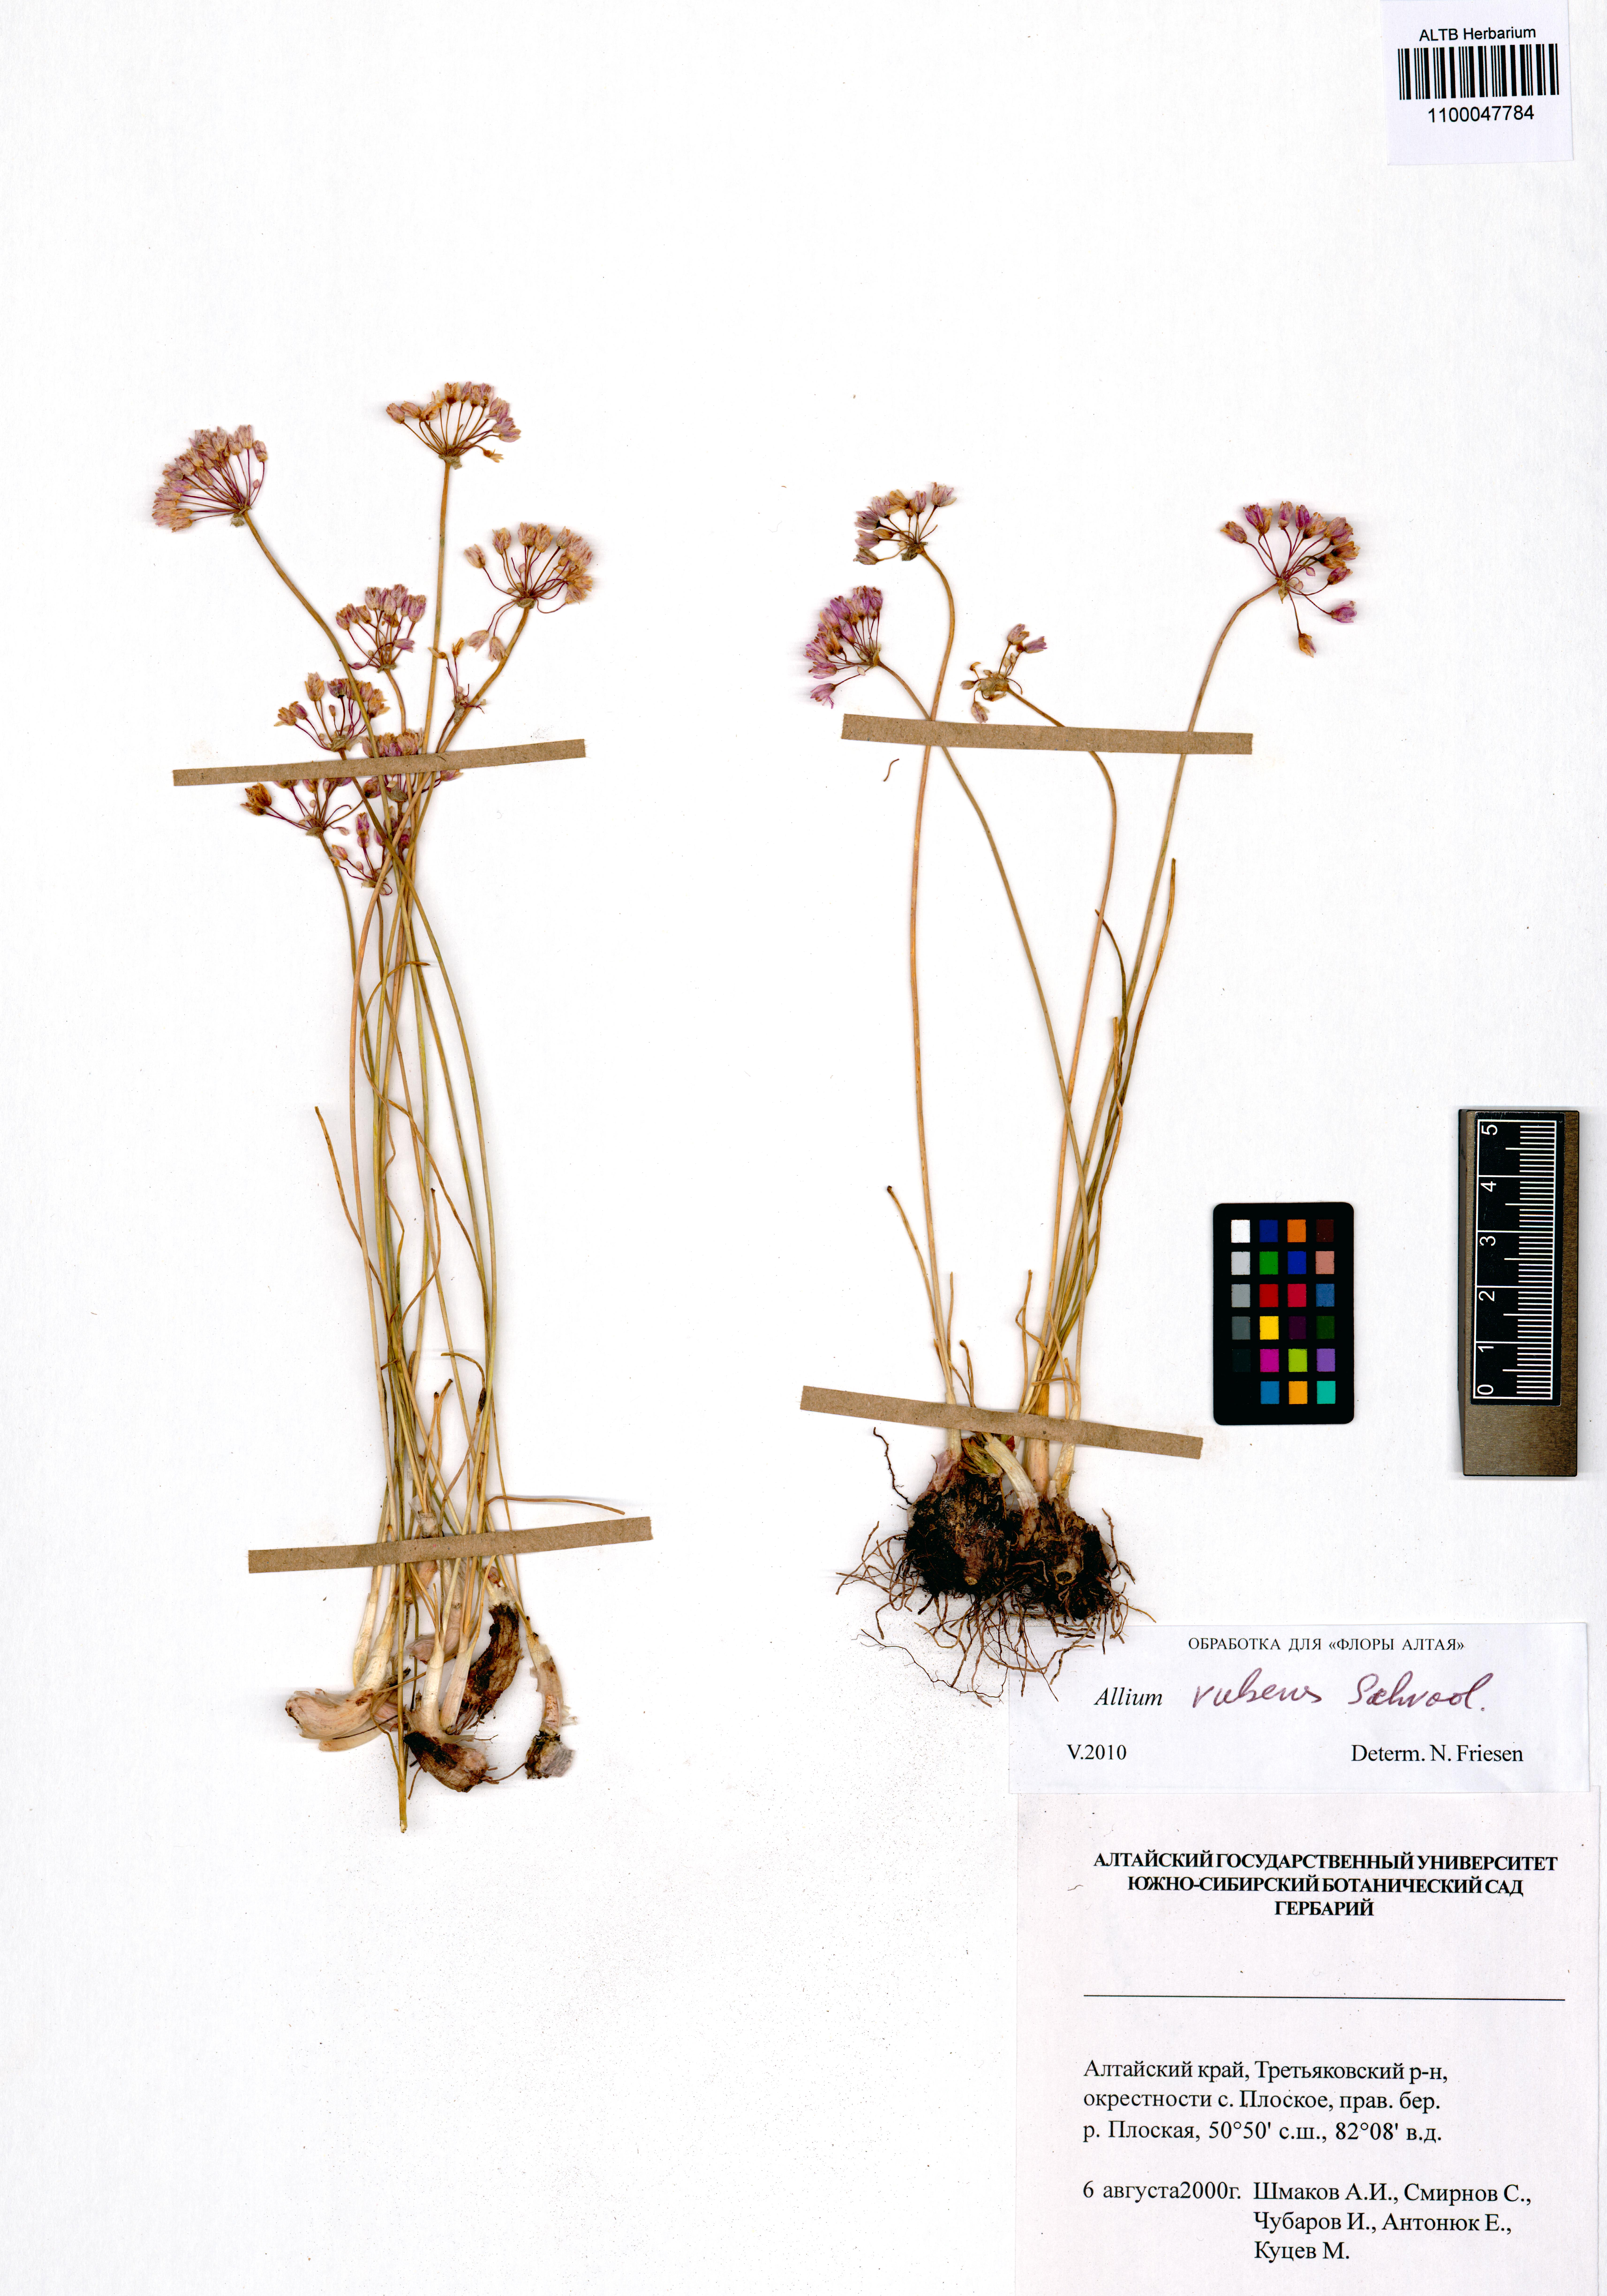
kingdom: Plantae
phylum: Tracheophyta
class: Liliopsida
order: Asparagales
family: Amaryllidaceae
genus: Allium
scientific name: Allium rubens
